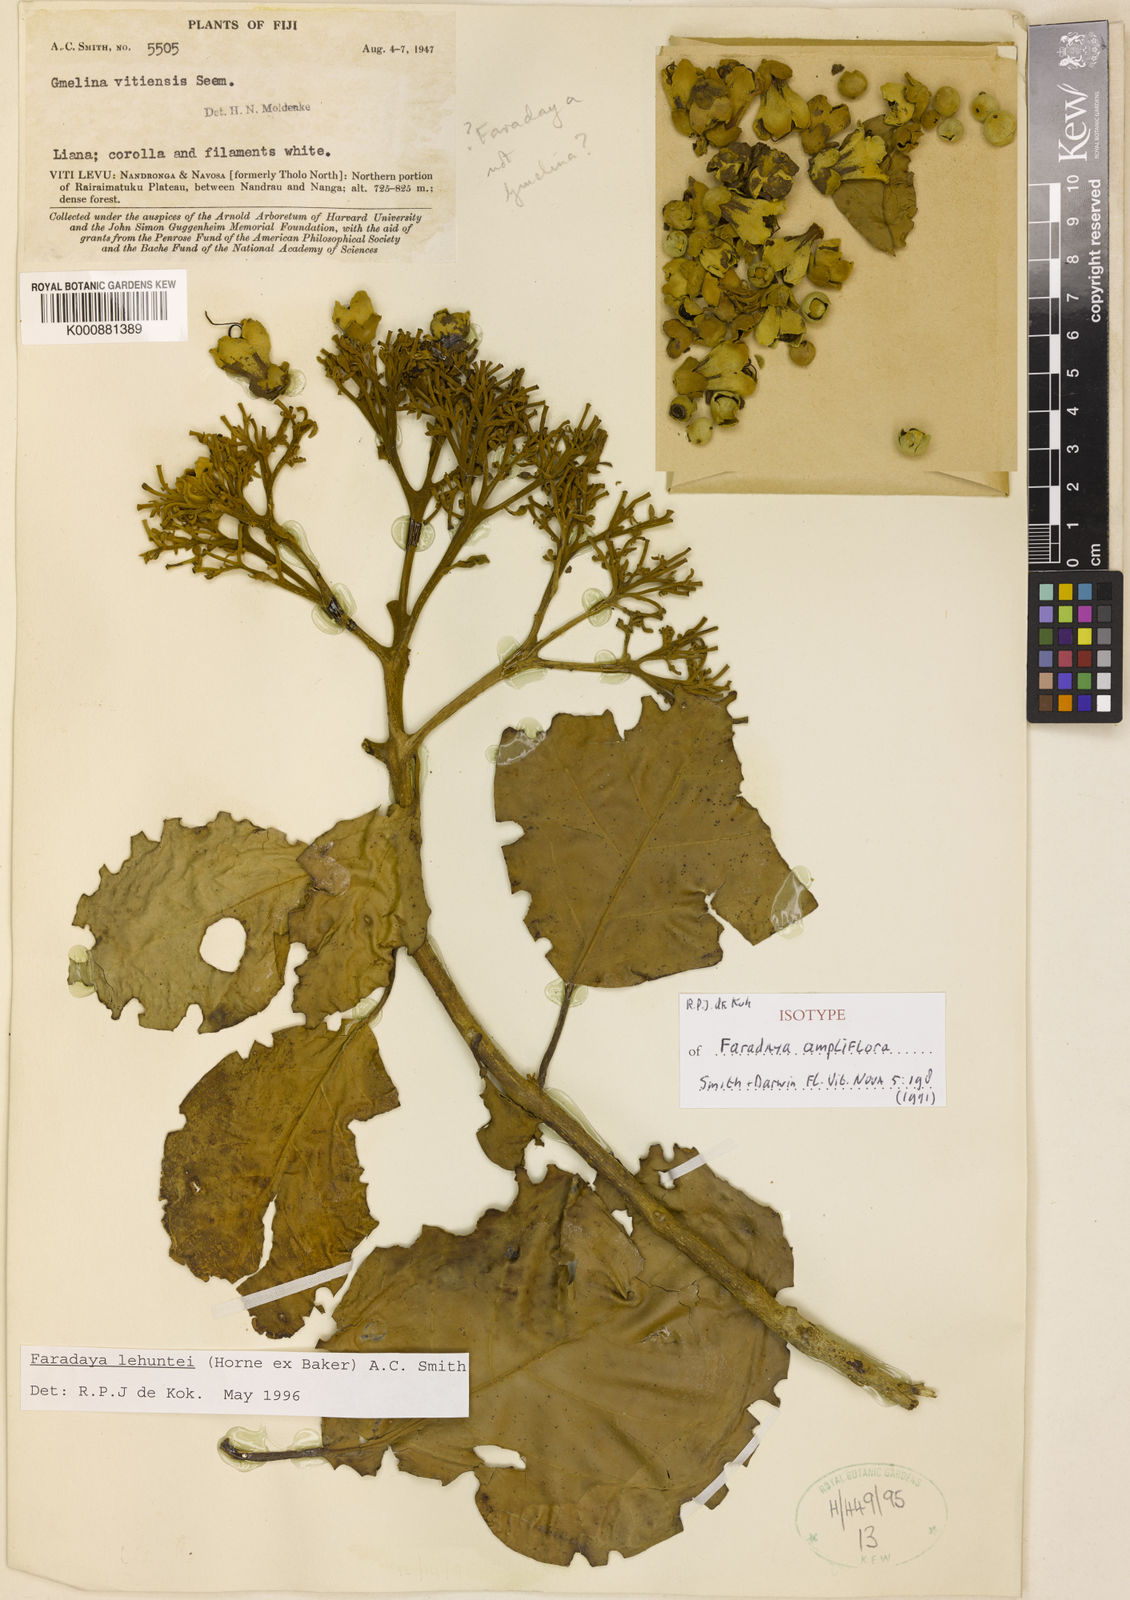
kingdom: Plantae
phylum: Tracheophyta
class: Magnoliopsida
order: Lamiales
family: Lamiaceae
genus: Oxera
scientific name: Oxera lehuntei
